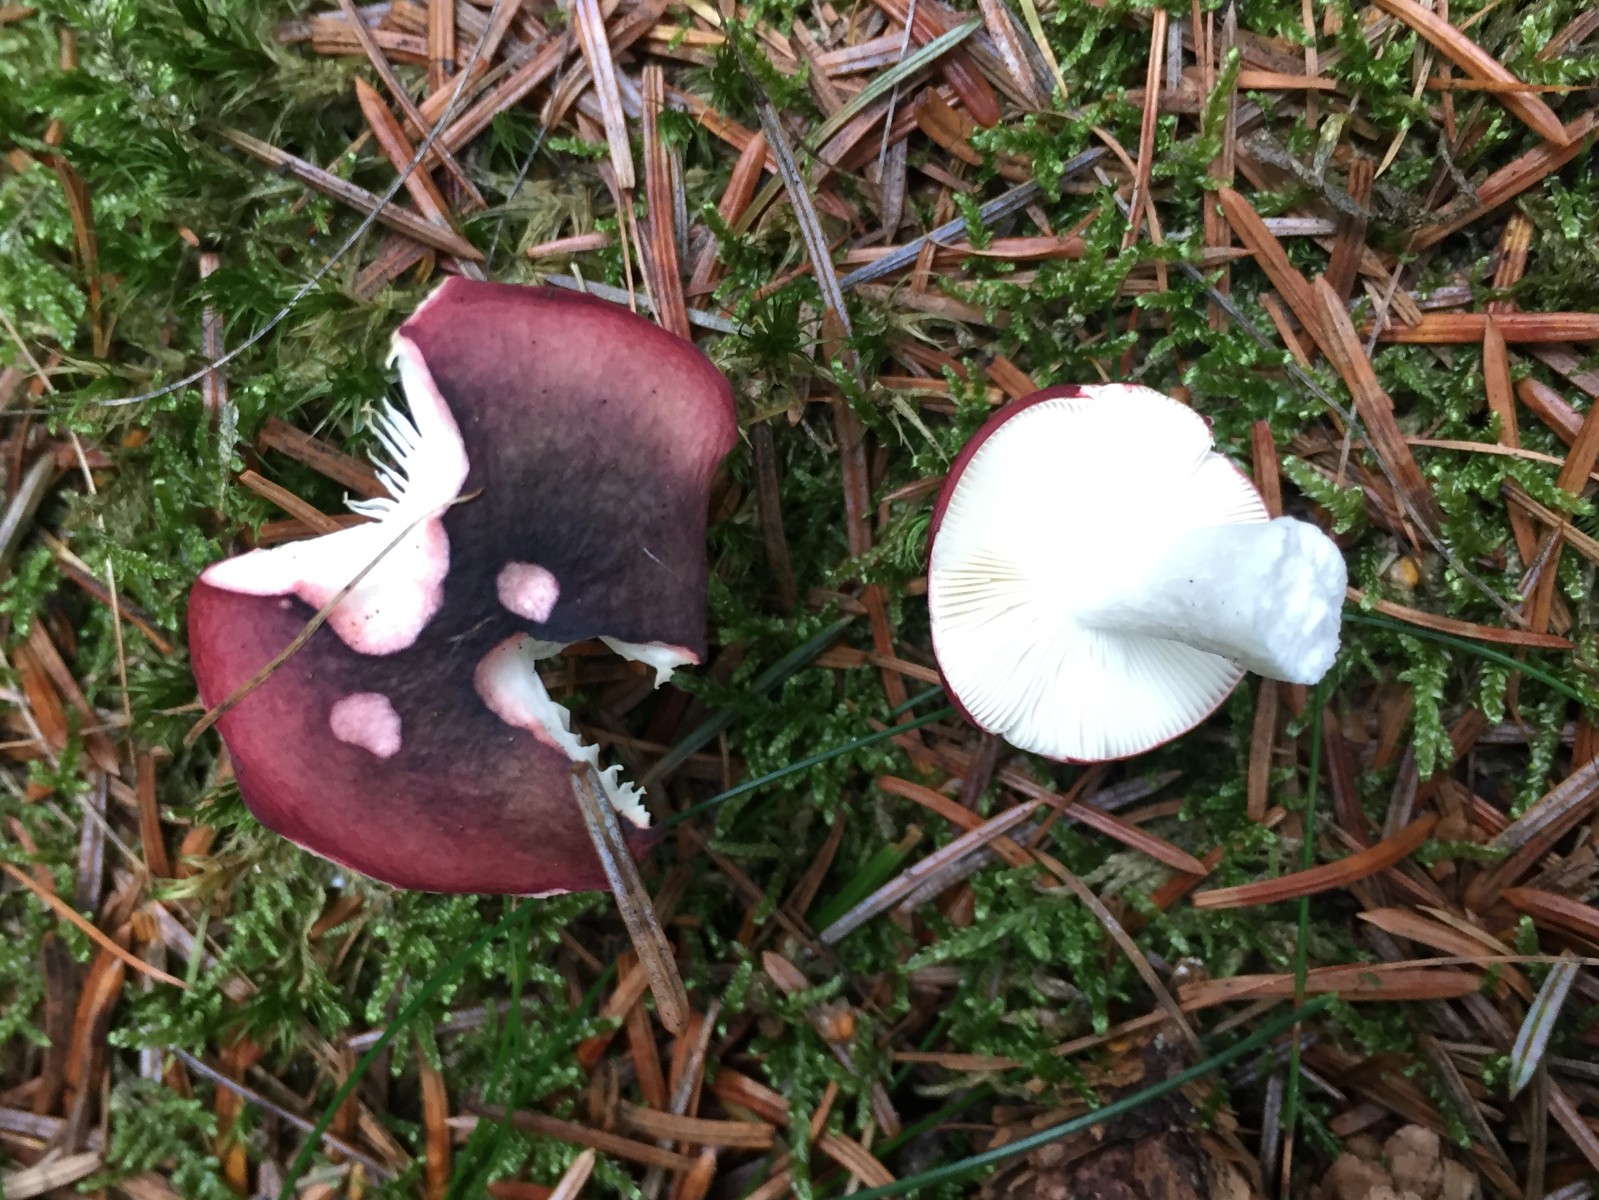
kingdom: Fungi
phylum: Basidiomycota
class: Agaricomycetes
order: Russulales
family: Russulaceae
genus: Russula
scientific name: Russula atrorubens
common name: sortrød skørhat
